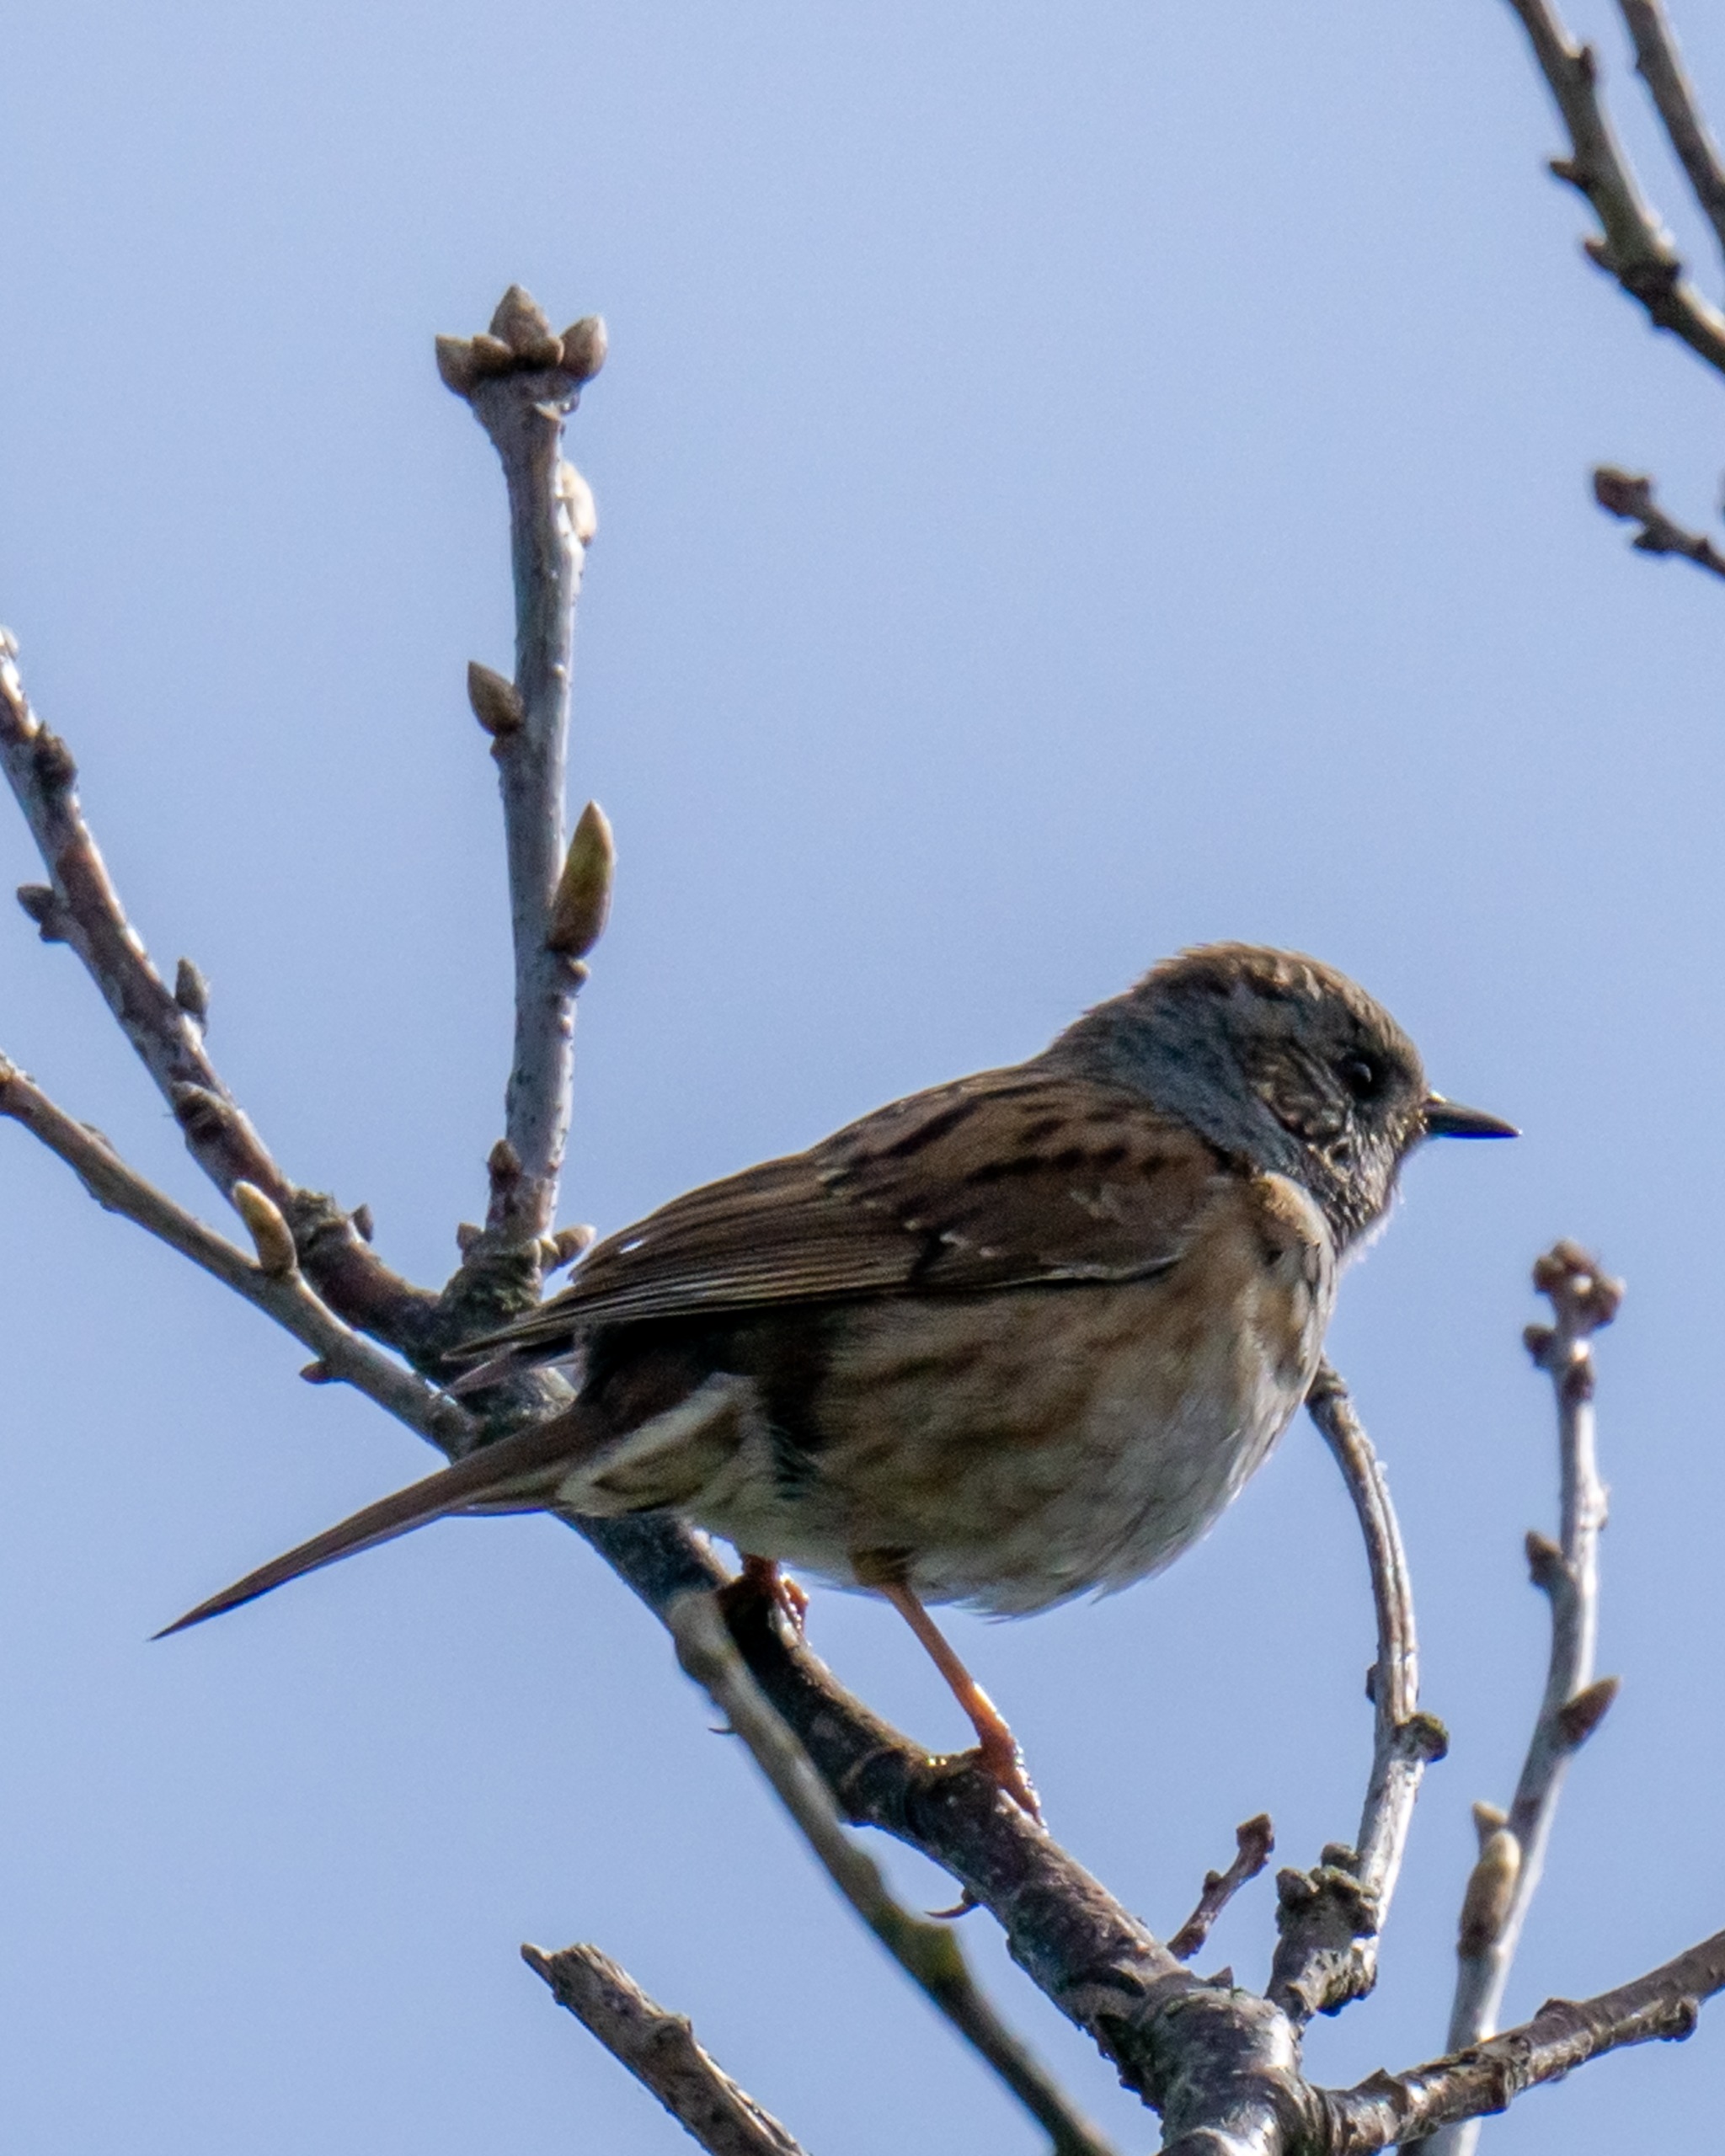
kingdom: Animalia
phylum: Chordata
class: Aves
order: Passeriformes
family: Prunellidae
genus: Prunella
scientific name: Prunella modularis
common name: Jernspurv
